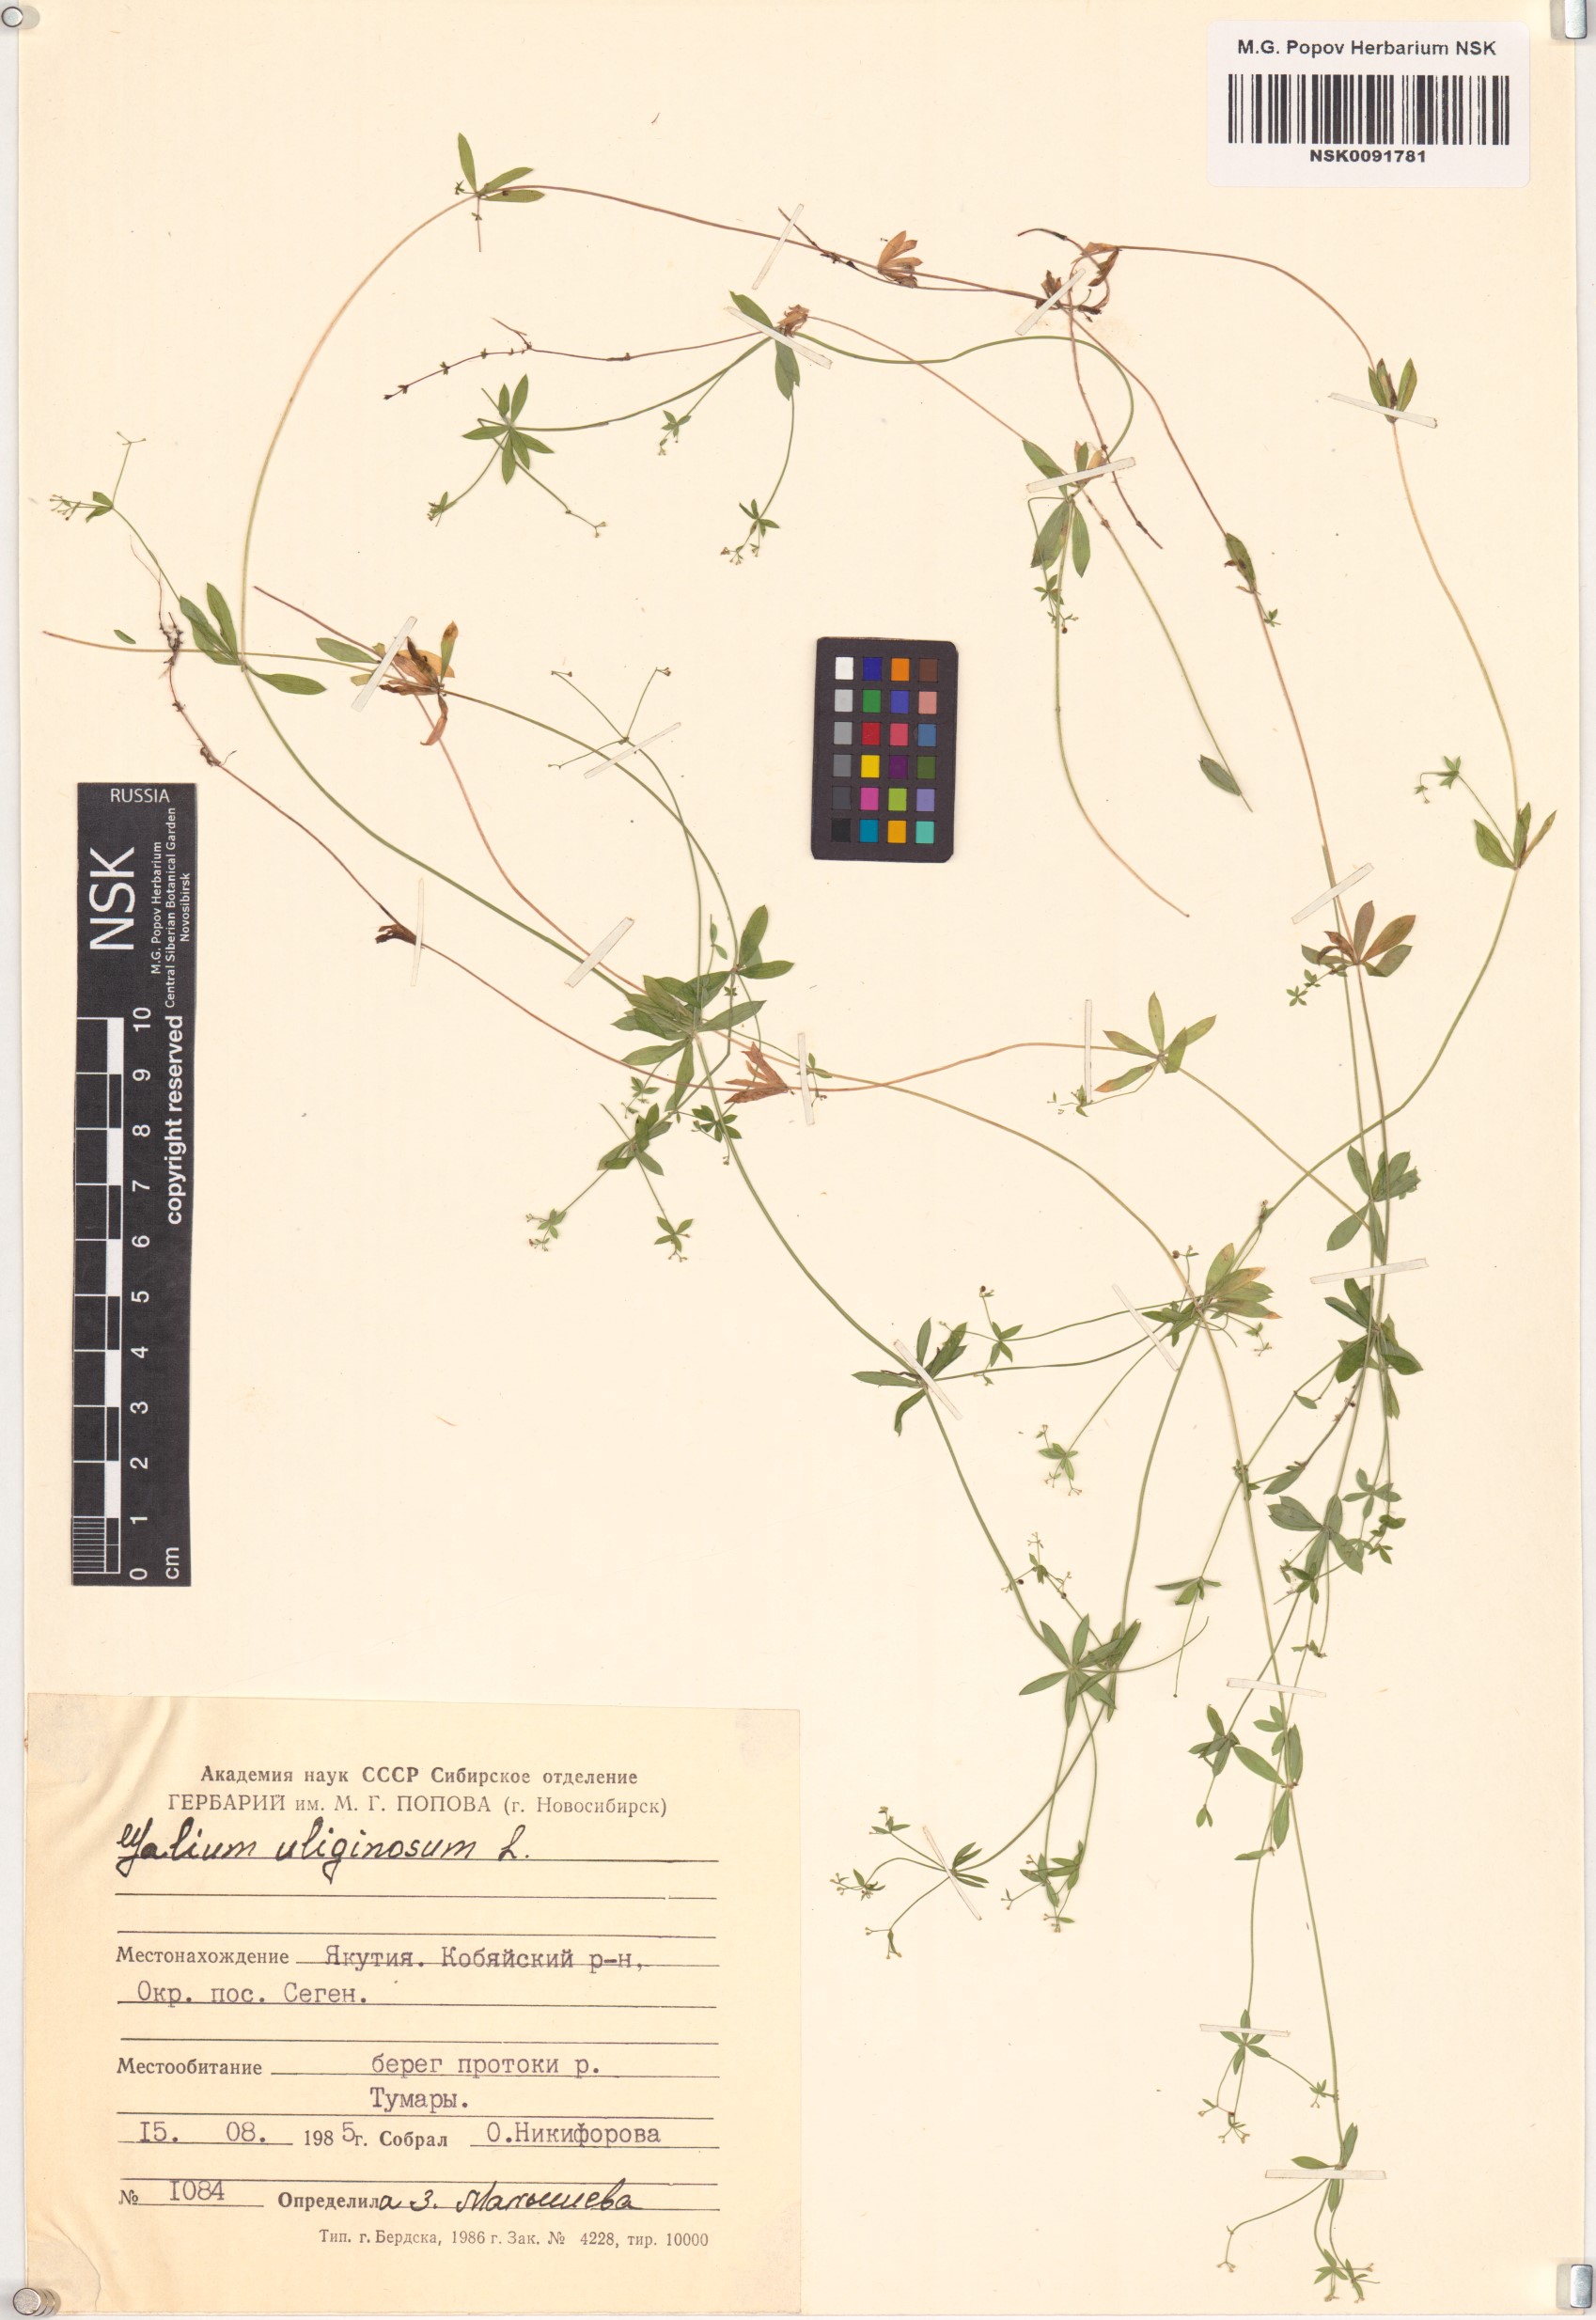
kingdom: Plantae
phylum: Tracheophyta
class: Magnoliopsida
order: Gentianales
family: Rubiaceae
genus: Galium
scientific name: Galium uliginosum
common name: Fen bedstraw
